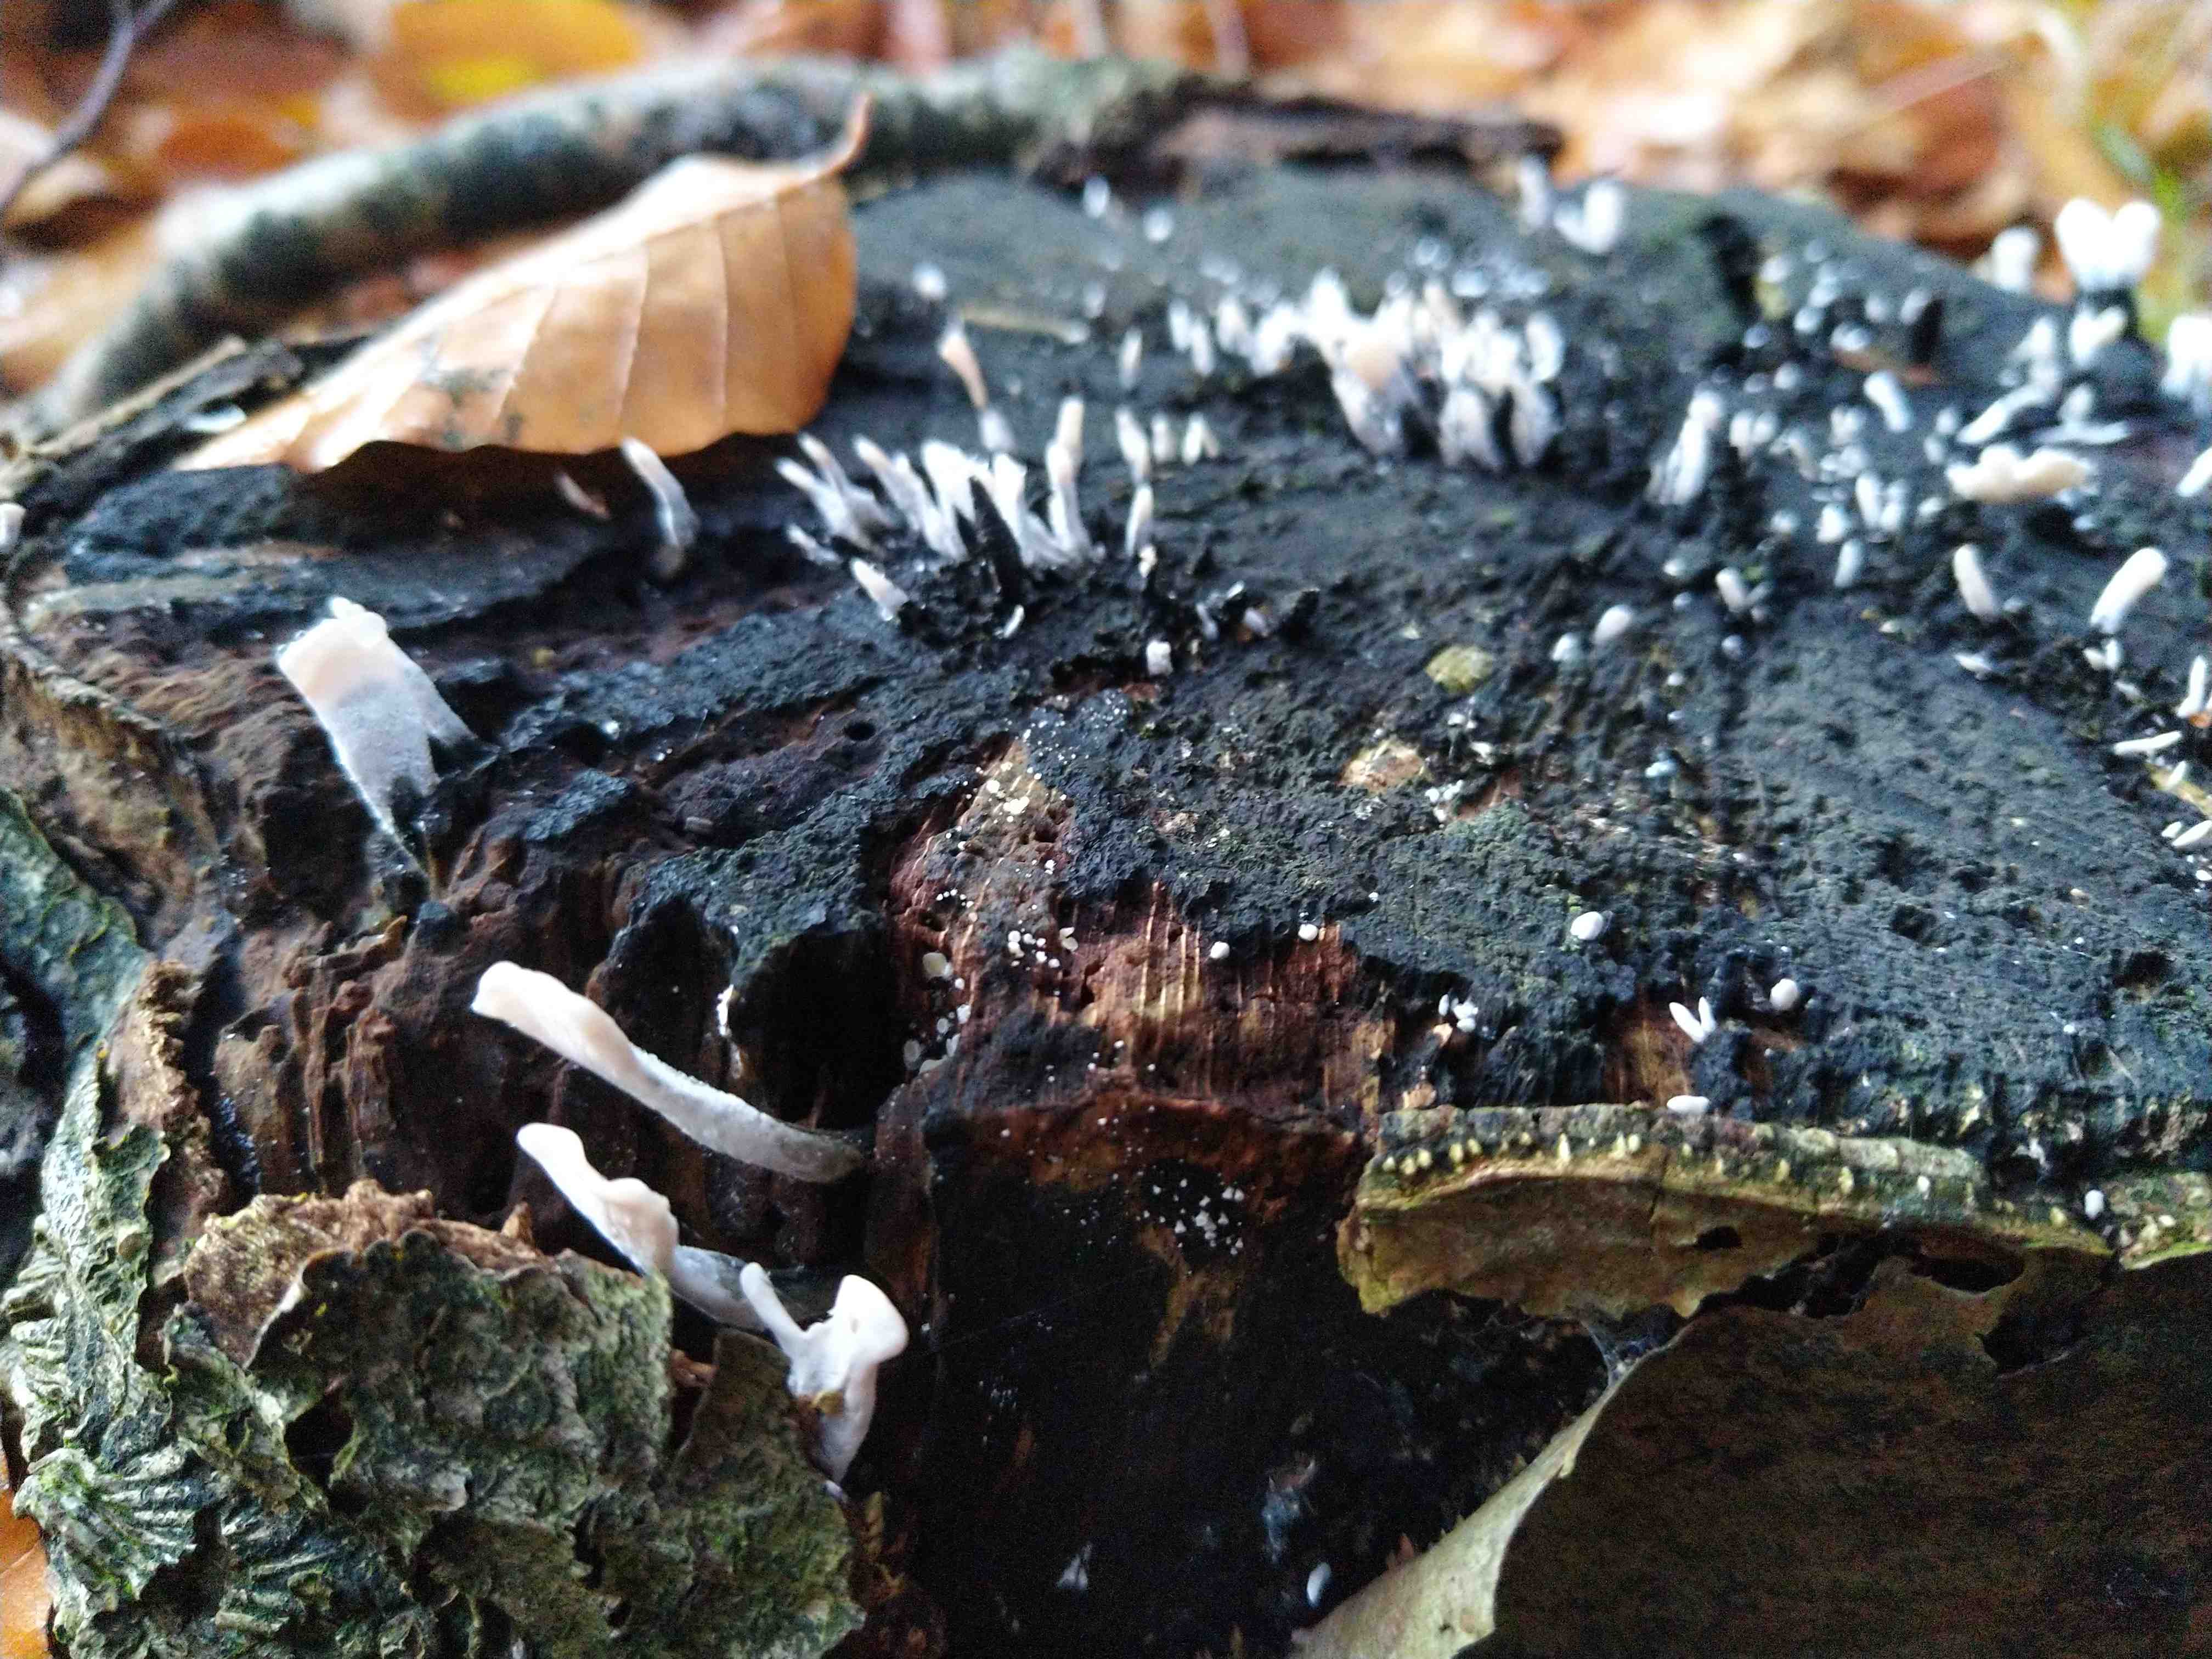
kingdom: Fungi
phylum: Ascomycota
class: Sordariomycetes
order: Xylariales
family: Xylariaceae
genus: Xylaria
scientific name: Xylaria hypoxylon
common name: grenet stødsvamp
